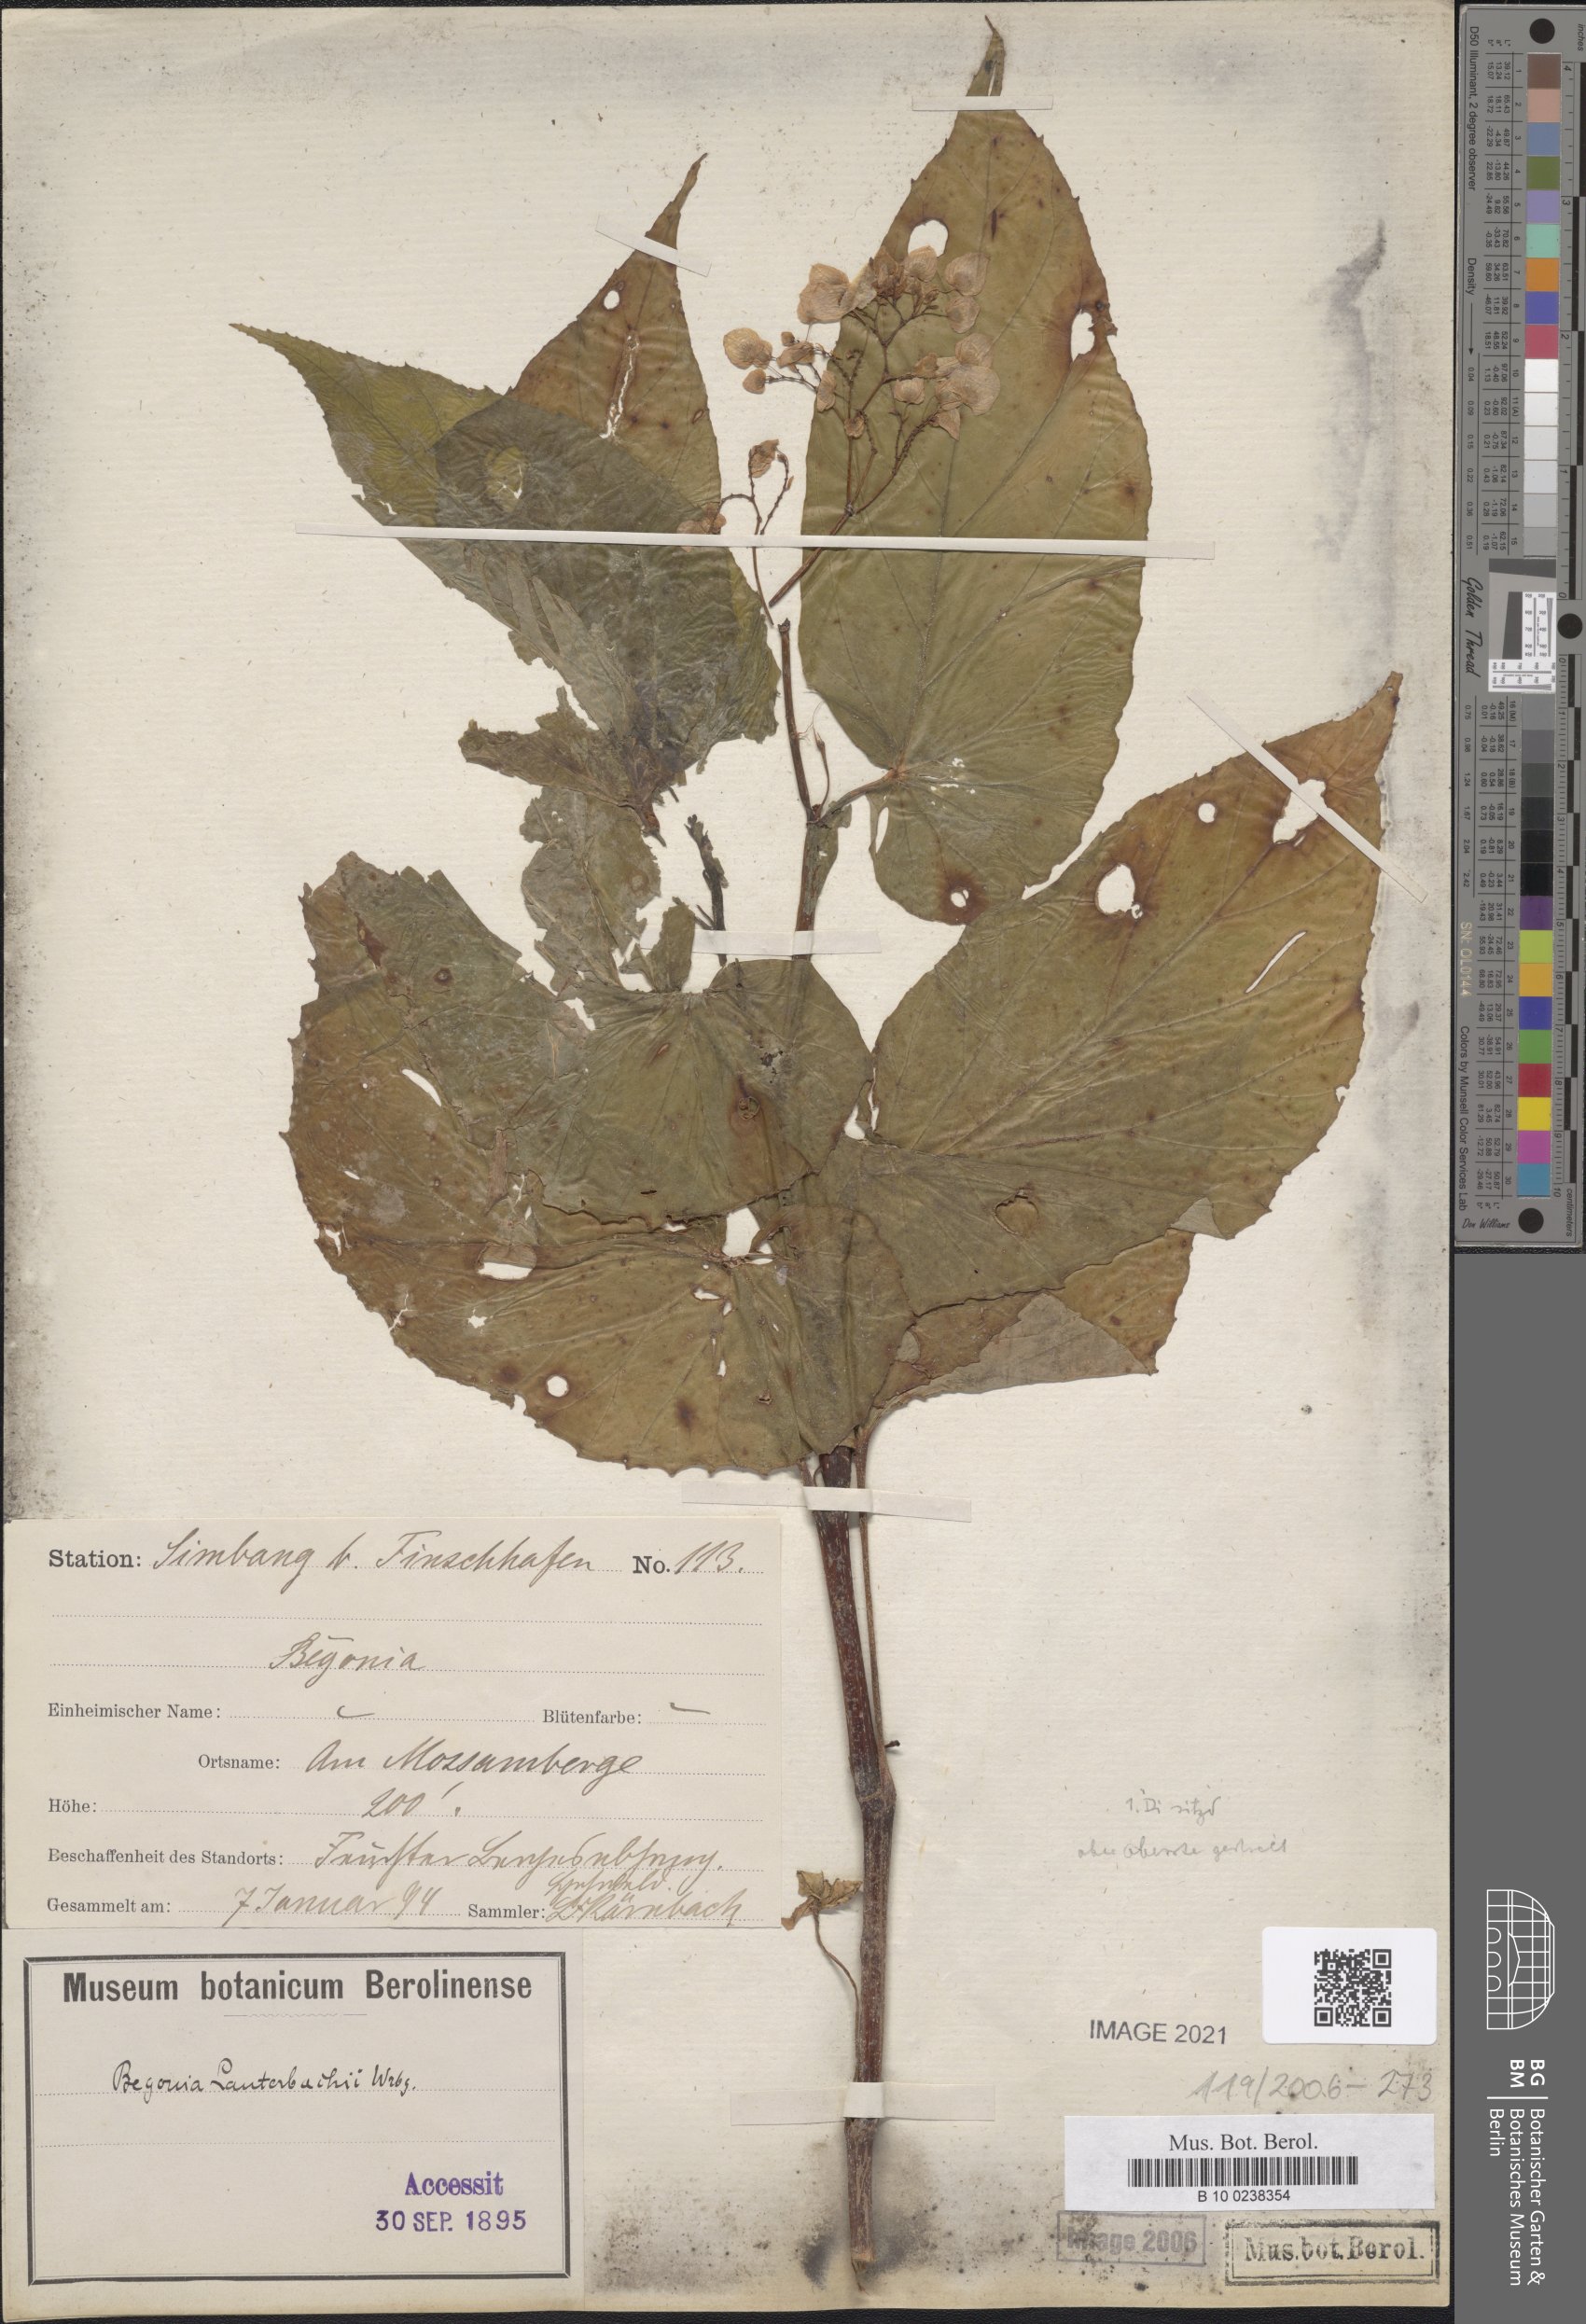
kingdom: Plantae
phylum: Tracheophyta
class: Magnoliopsida
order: Cucurbitales
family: Begoniaceae
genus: Begonia
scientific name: Begonia lauterbachii
